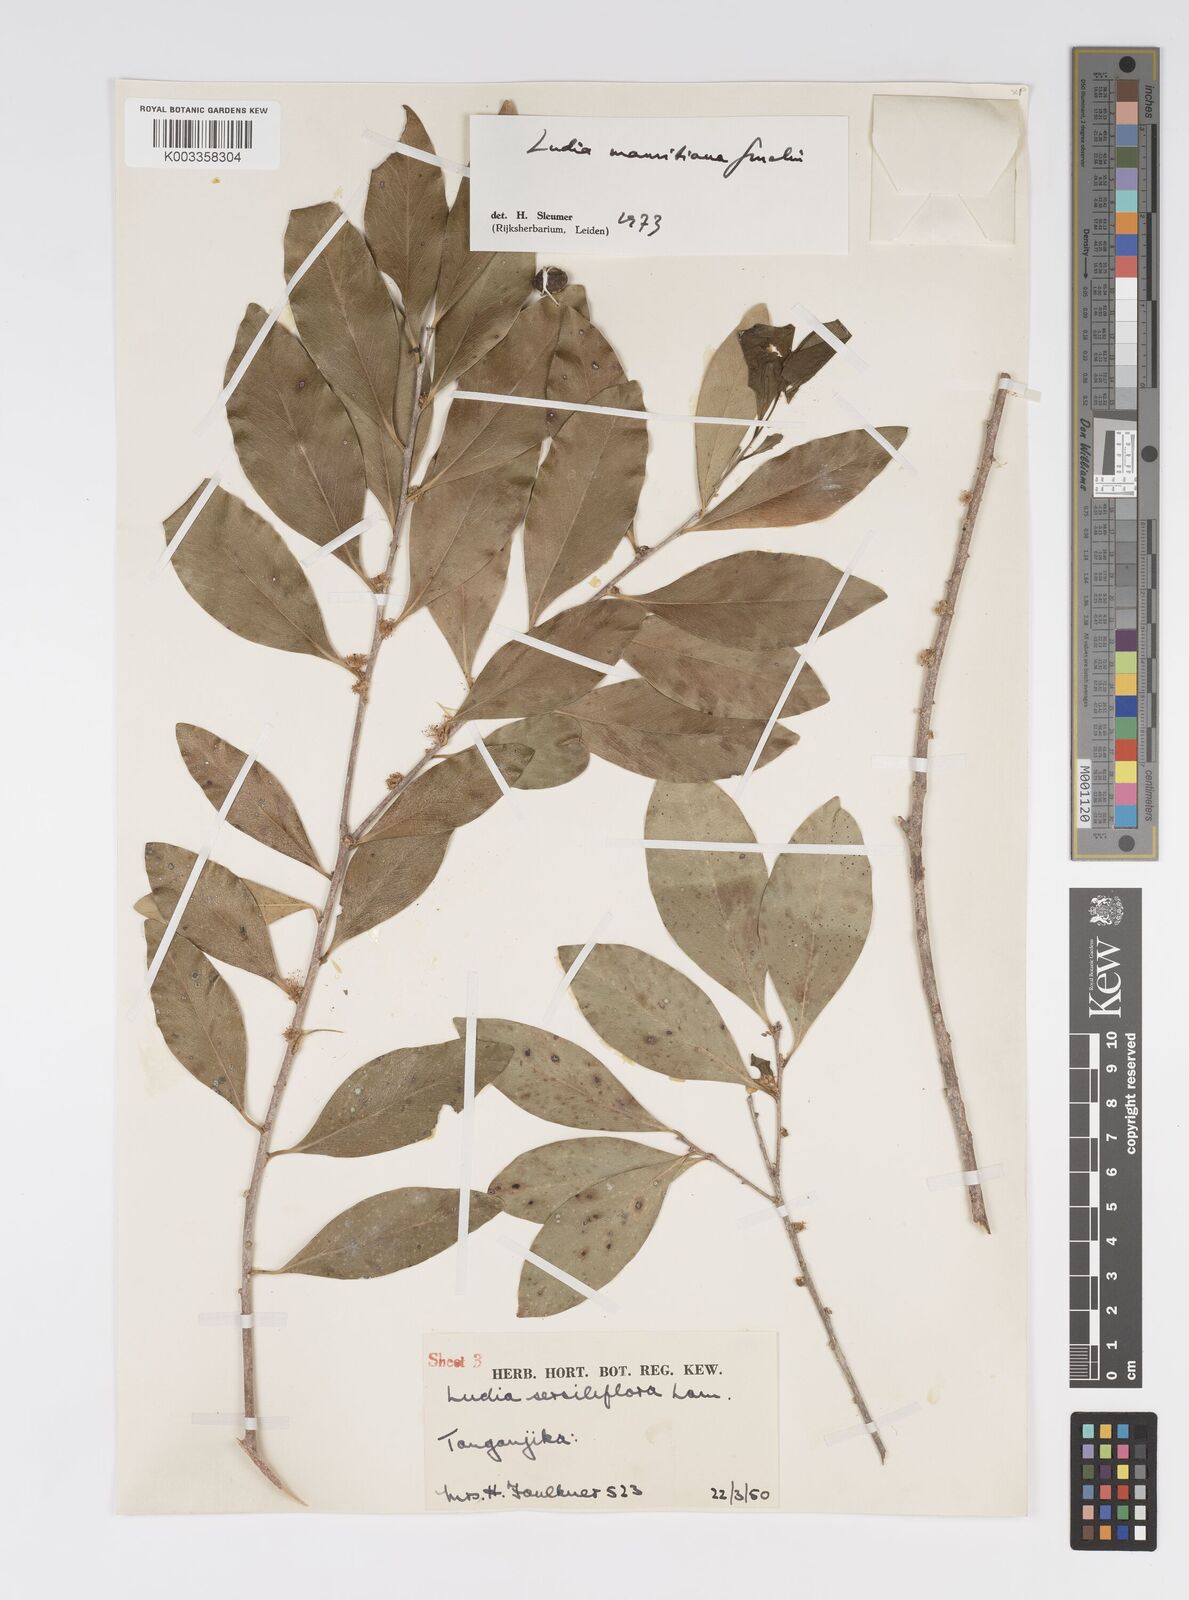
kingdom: Plantae
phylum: Tracheophyta
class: Magnoliopsida
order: Malpighiales
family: Salicaceae
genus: Ludia
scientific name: Ludia mauritiana
